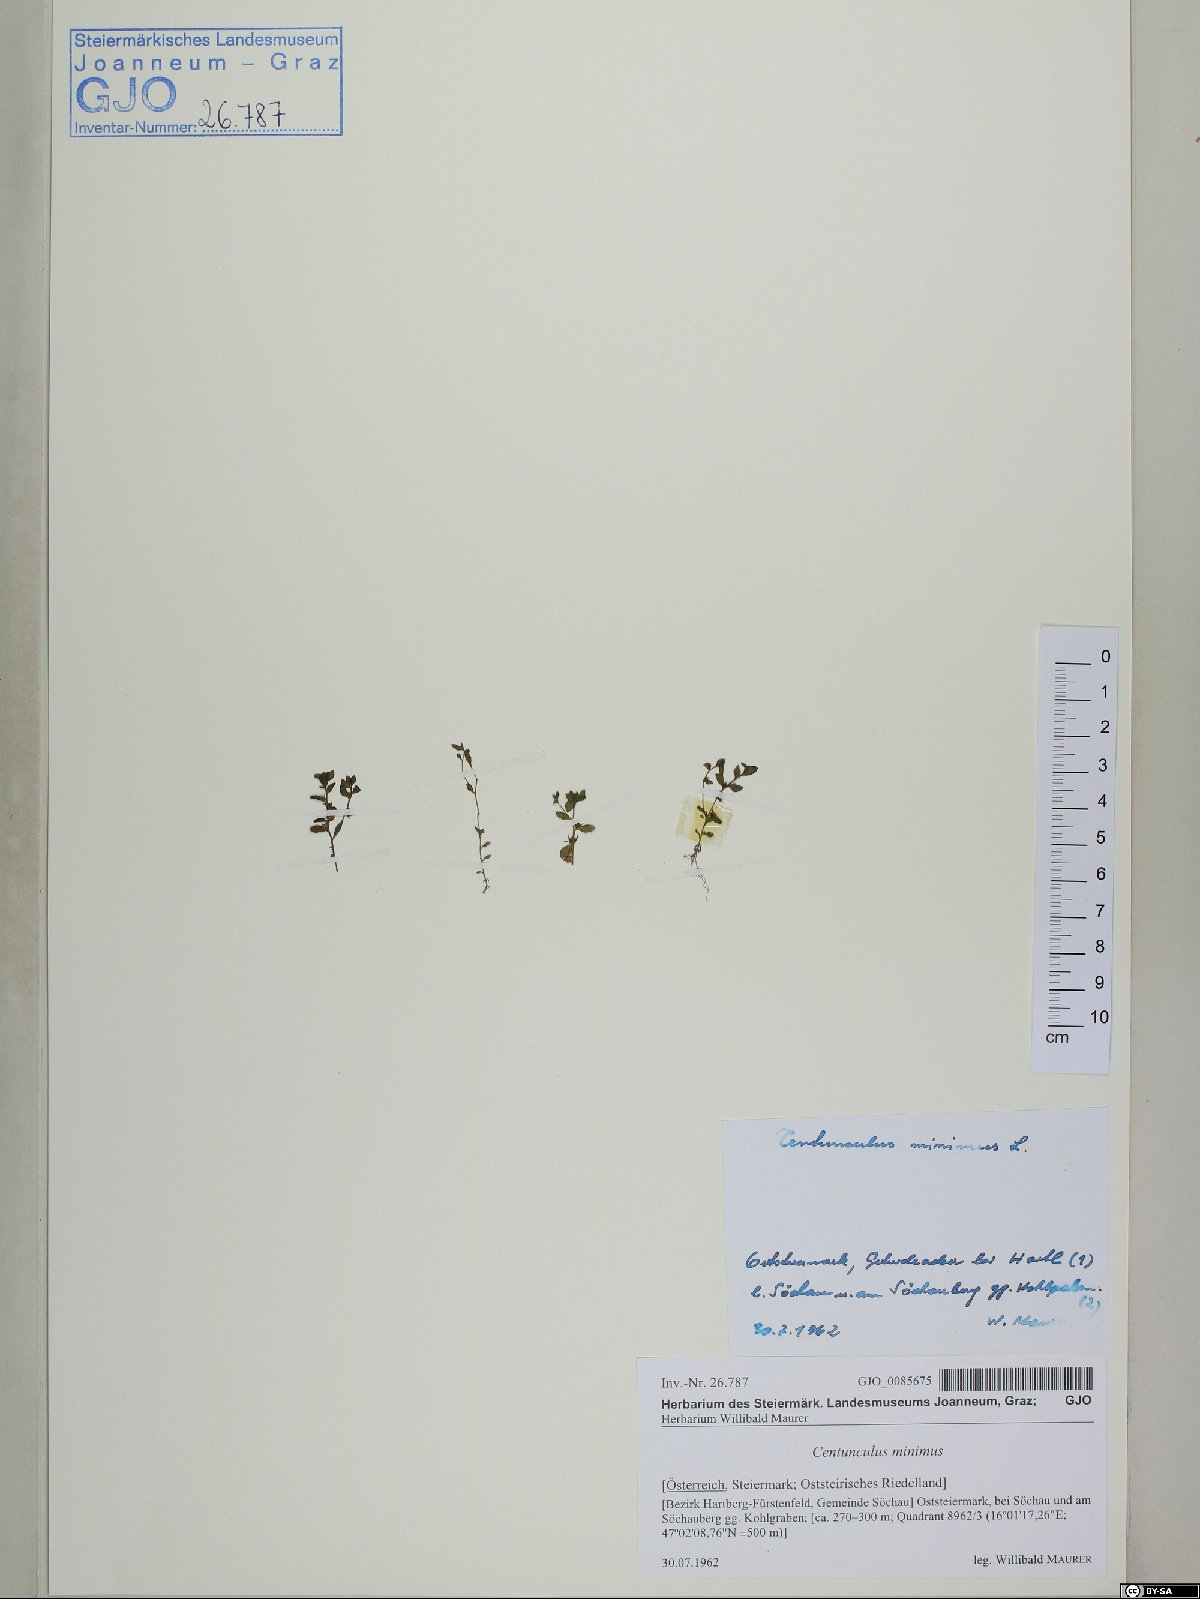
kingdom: Plantae
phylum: Tracheophyta
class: Magnoliopsida
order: Ericales
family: Primulaceae
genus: Lysimachia
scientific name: Lysimachia minima
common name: Chaffweed
